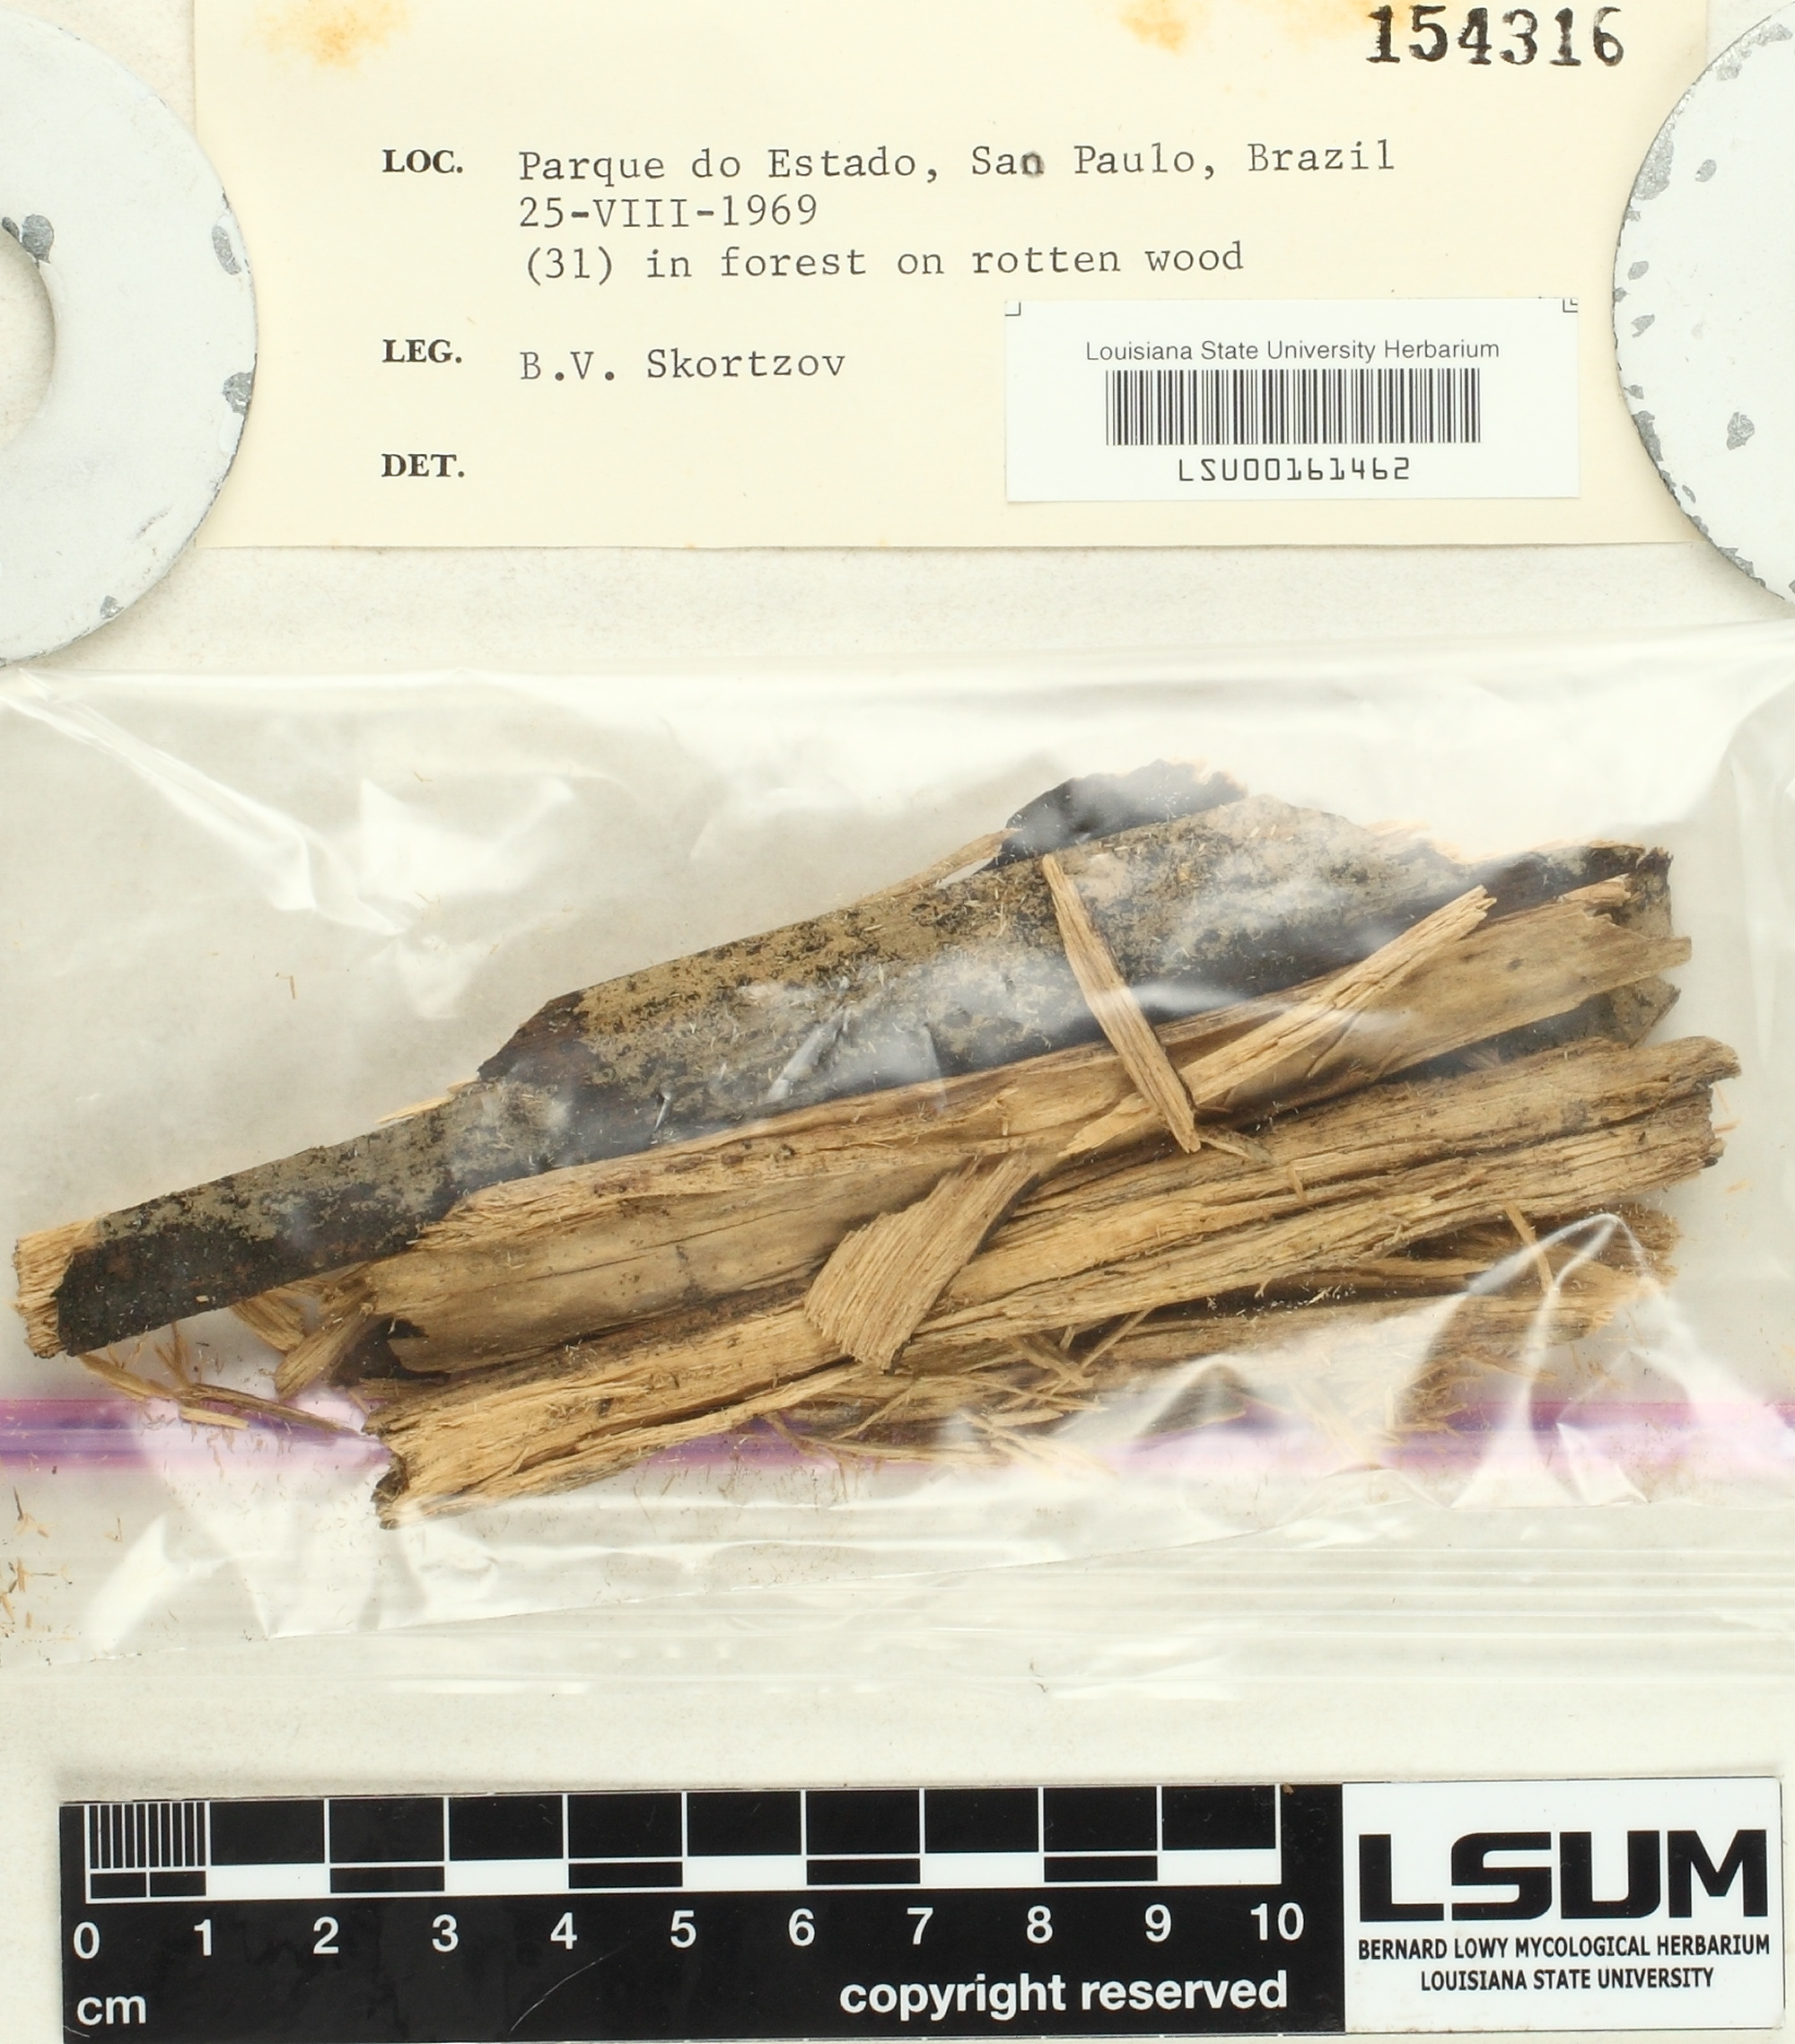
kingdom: Fungi
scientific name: Fungi
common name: Fungi
